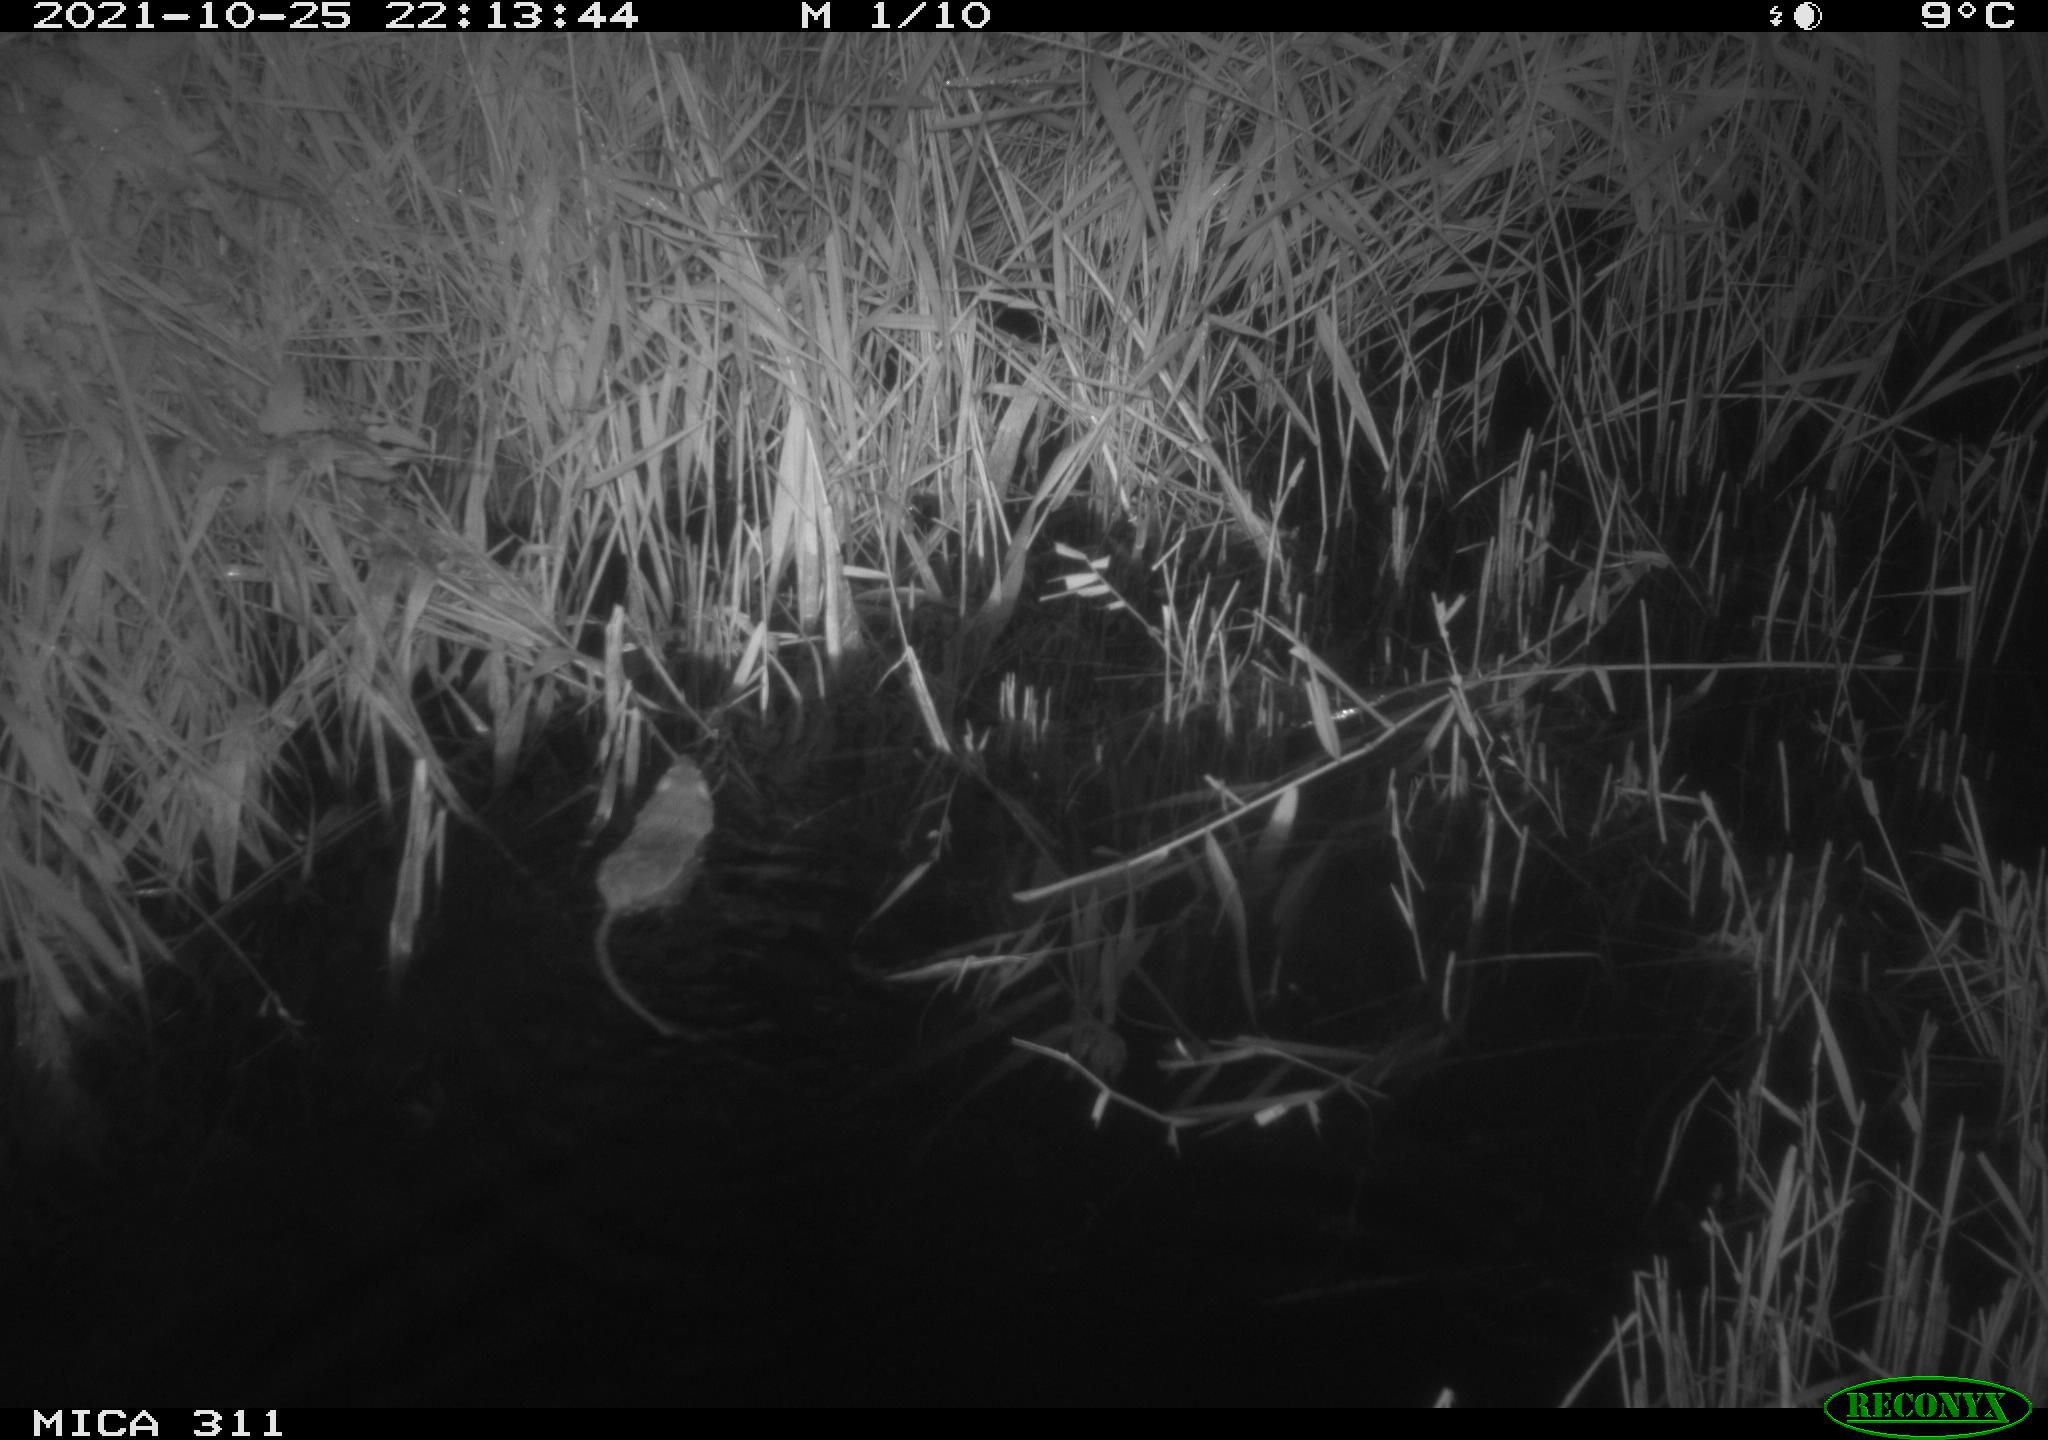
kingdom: Animalia
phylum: Chordata
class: Mammalia
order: Rodentia
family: Muridae
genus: Rattus
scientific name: Rattus norvegicus
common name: Brown rat
